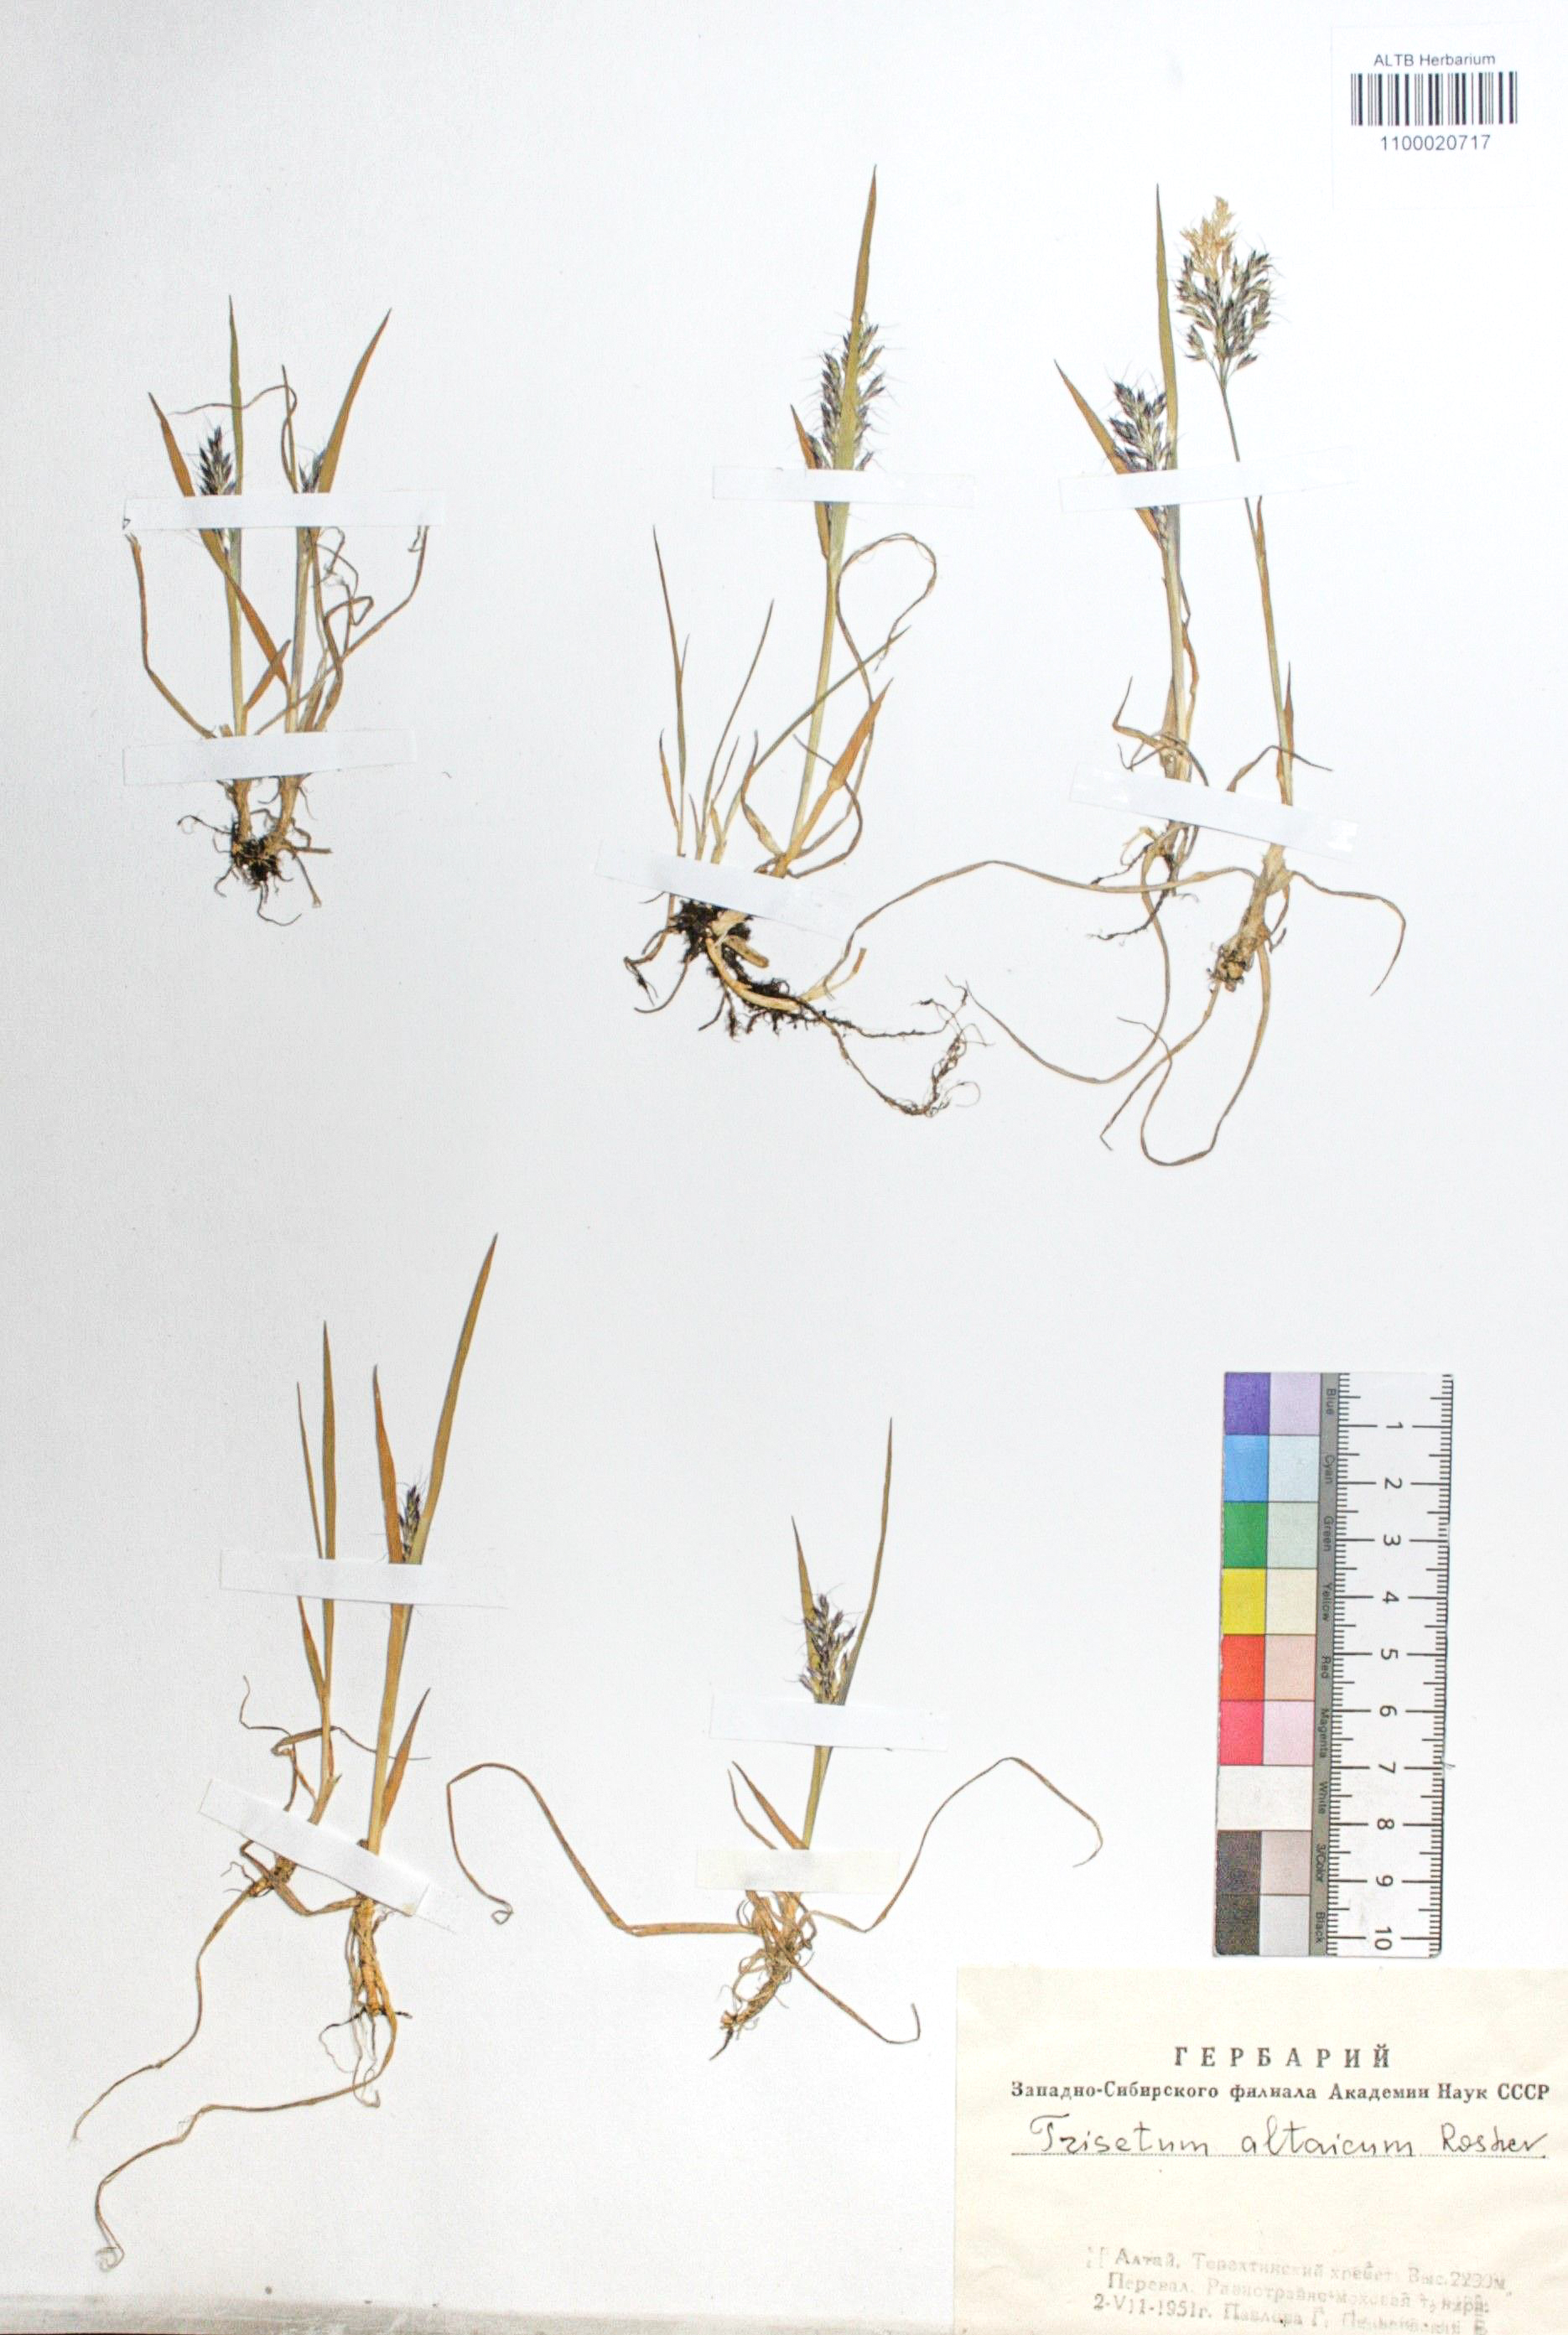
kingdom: Plantae
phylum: Tracheophyta
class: Liliopsida
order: Poales
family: Poaceae
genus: Trisetum
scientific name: Trisetum altaicum
